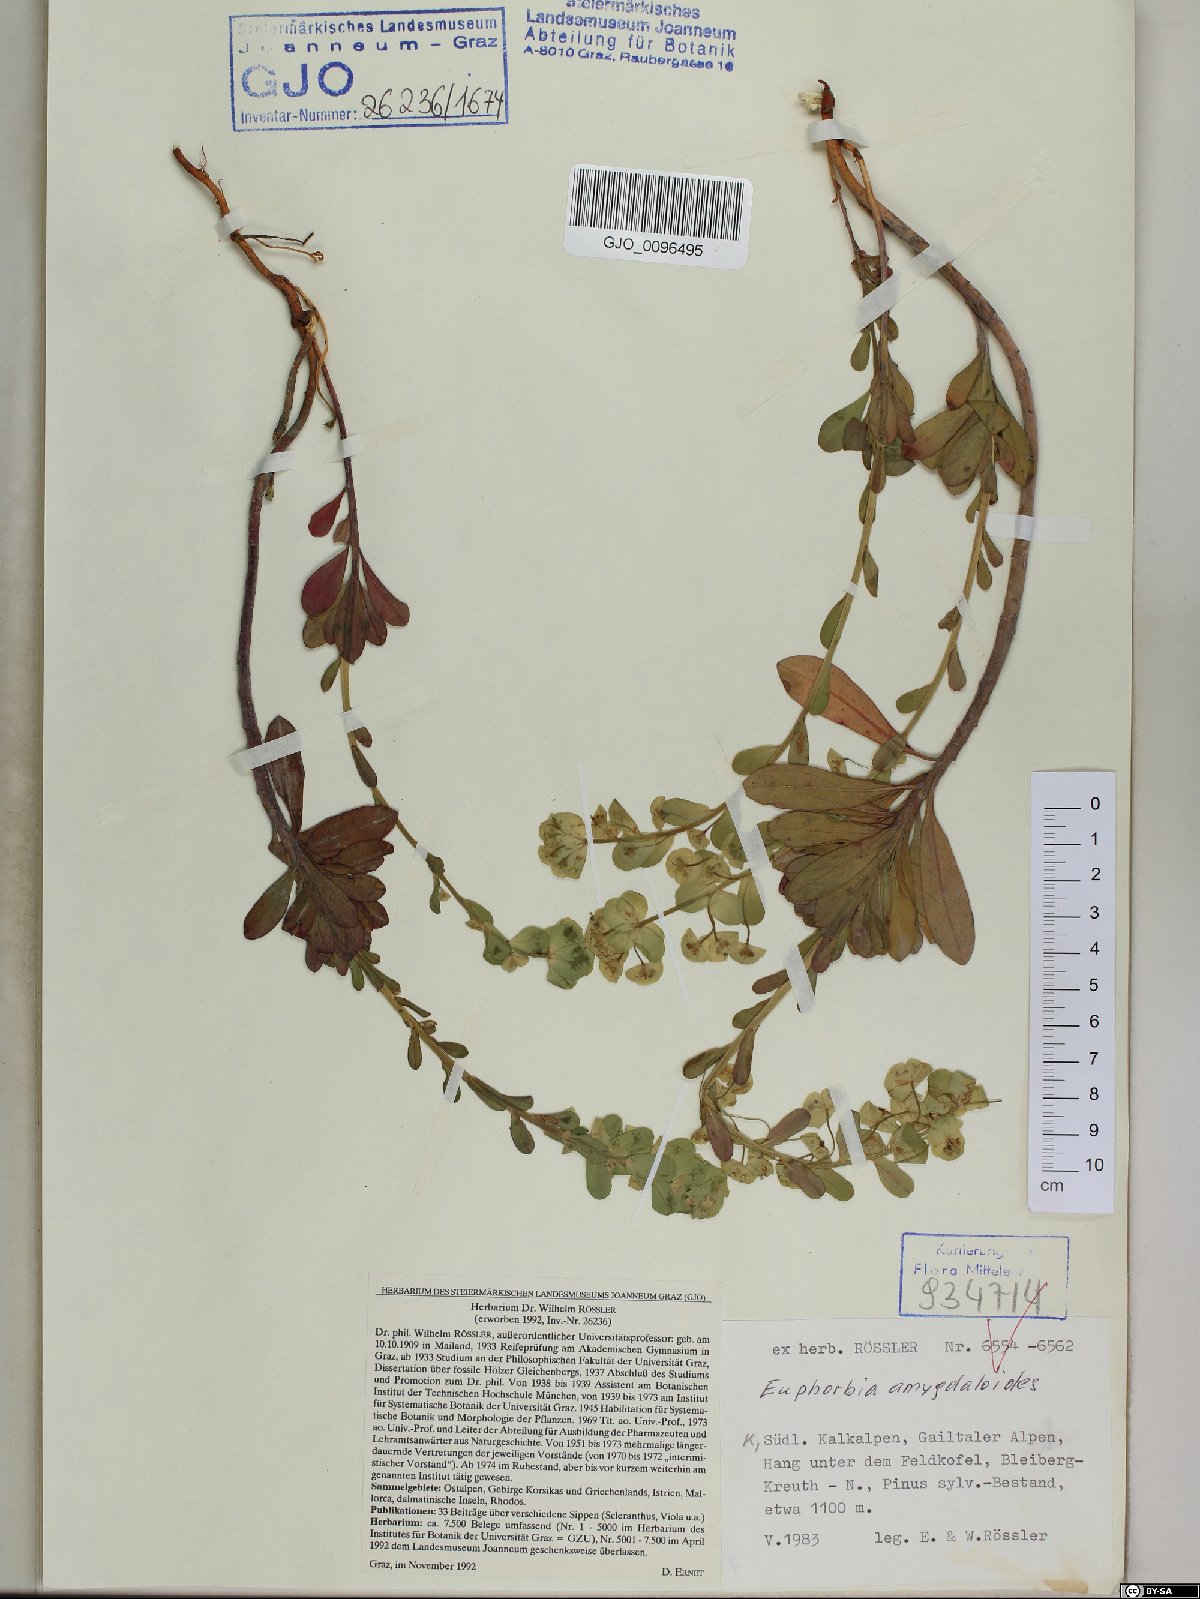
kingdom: Plantae
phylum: Tracheophyta
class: Magnoliopsida
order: Malpighiales
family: Euphorbiaceae
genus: Euphorbia
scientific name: Euphorbia amygdaloides
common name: Wood spurge
